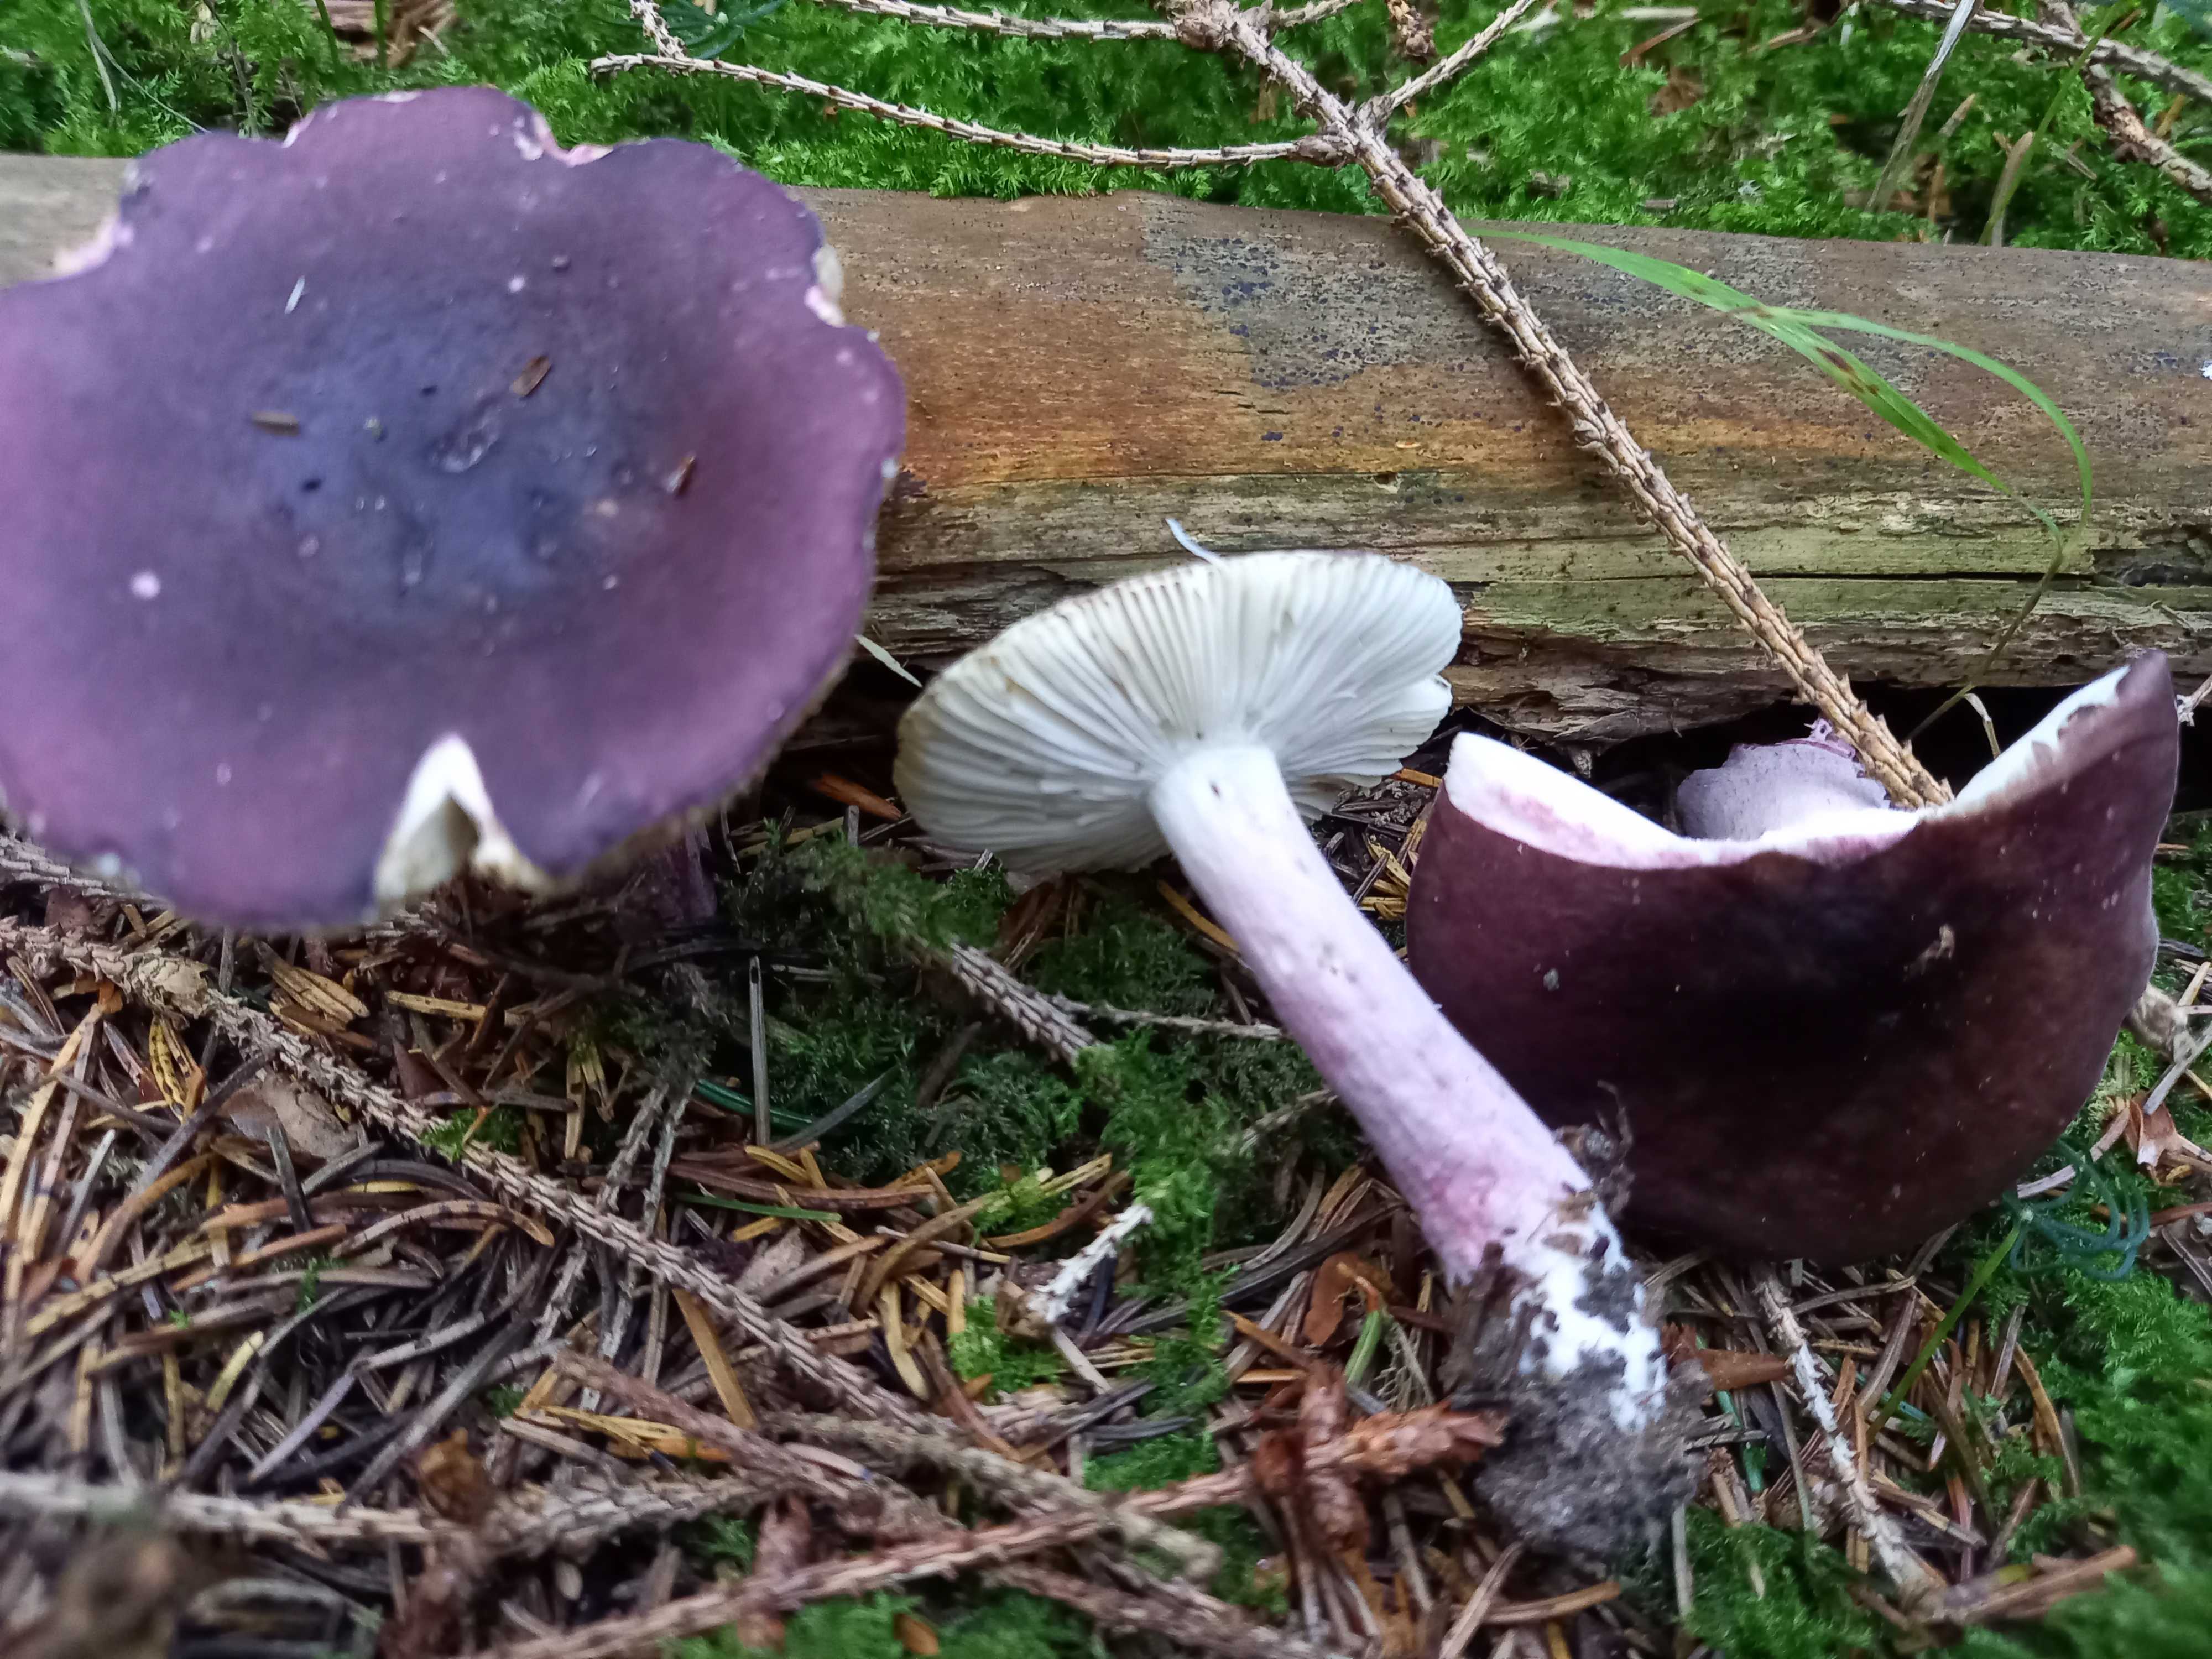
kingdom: Fungi
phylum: Basidiomycota
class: Agaricomycetes
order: Russulales
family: Russulaceae
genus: Russula
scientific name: Russula queletii
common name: Quélets skørhat
